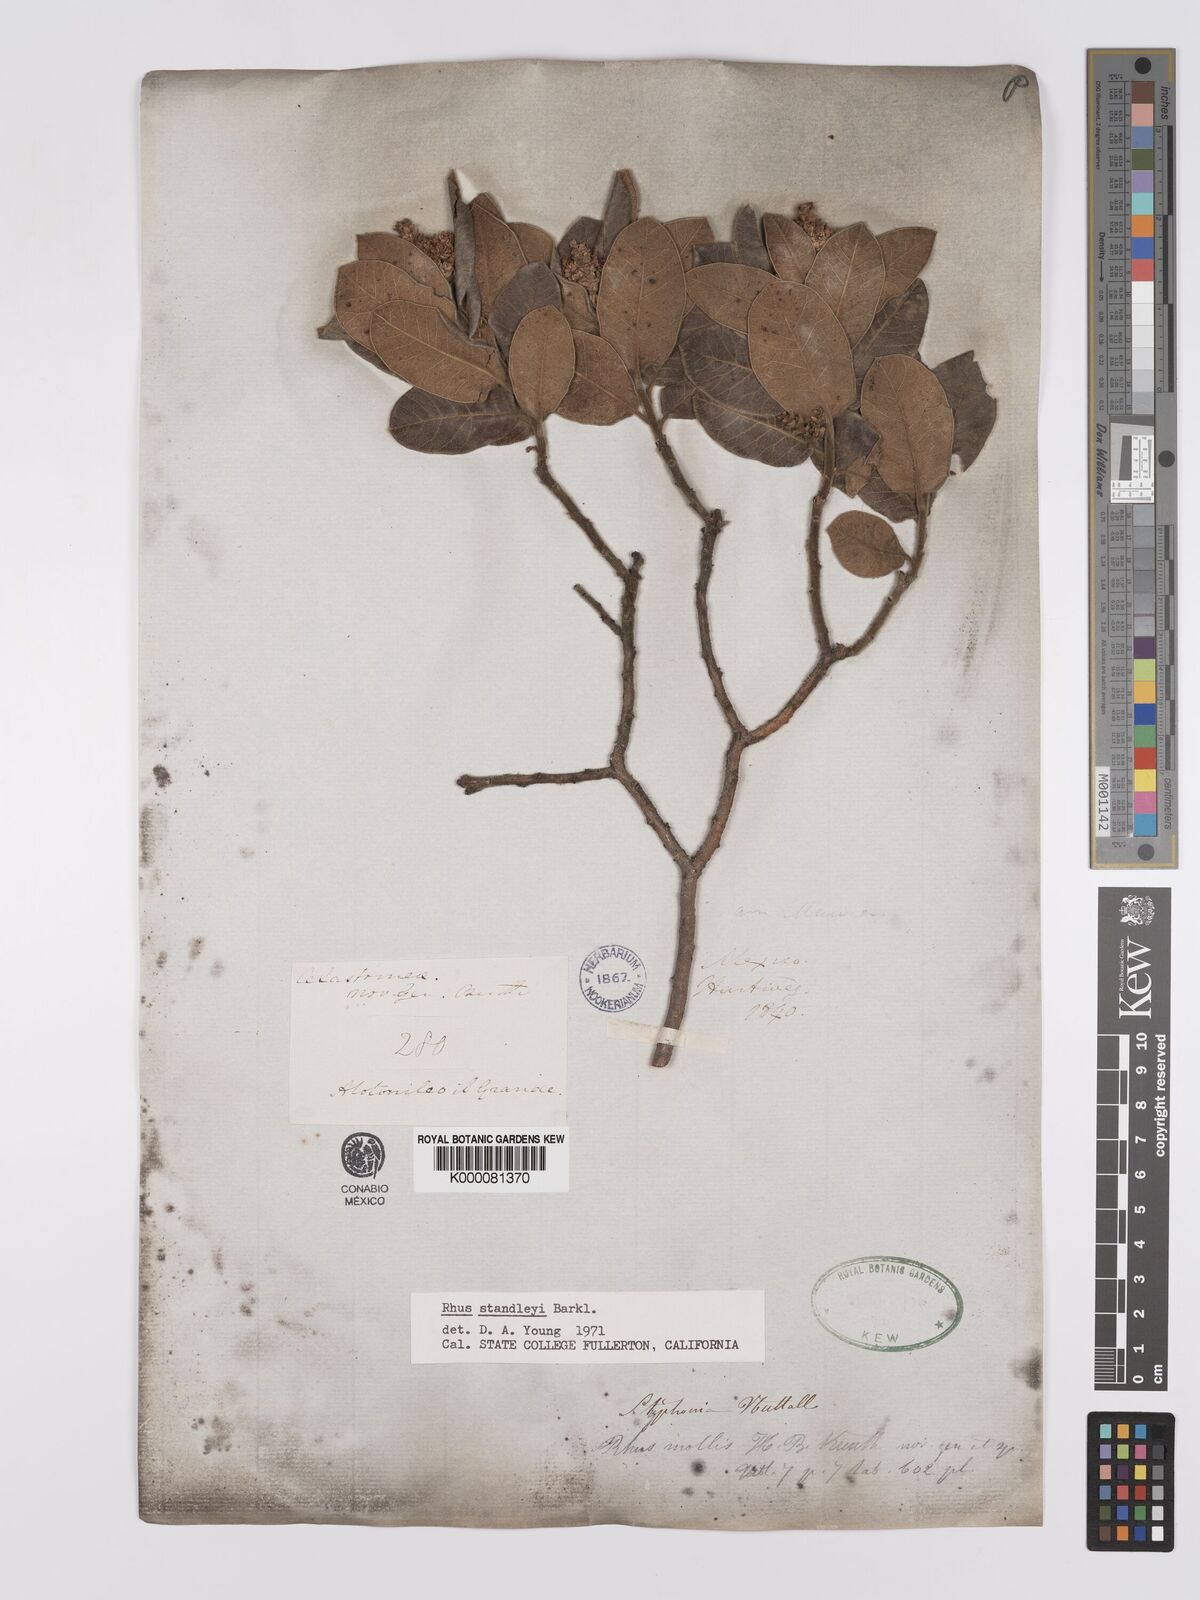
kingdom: Plantae
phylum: Tracheophyta
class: Magnoliopsida
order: Sapindales
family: Anacardiaceae
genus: Rhus
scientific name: Rhus standleyi
